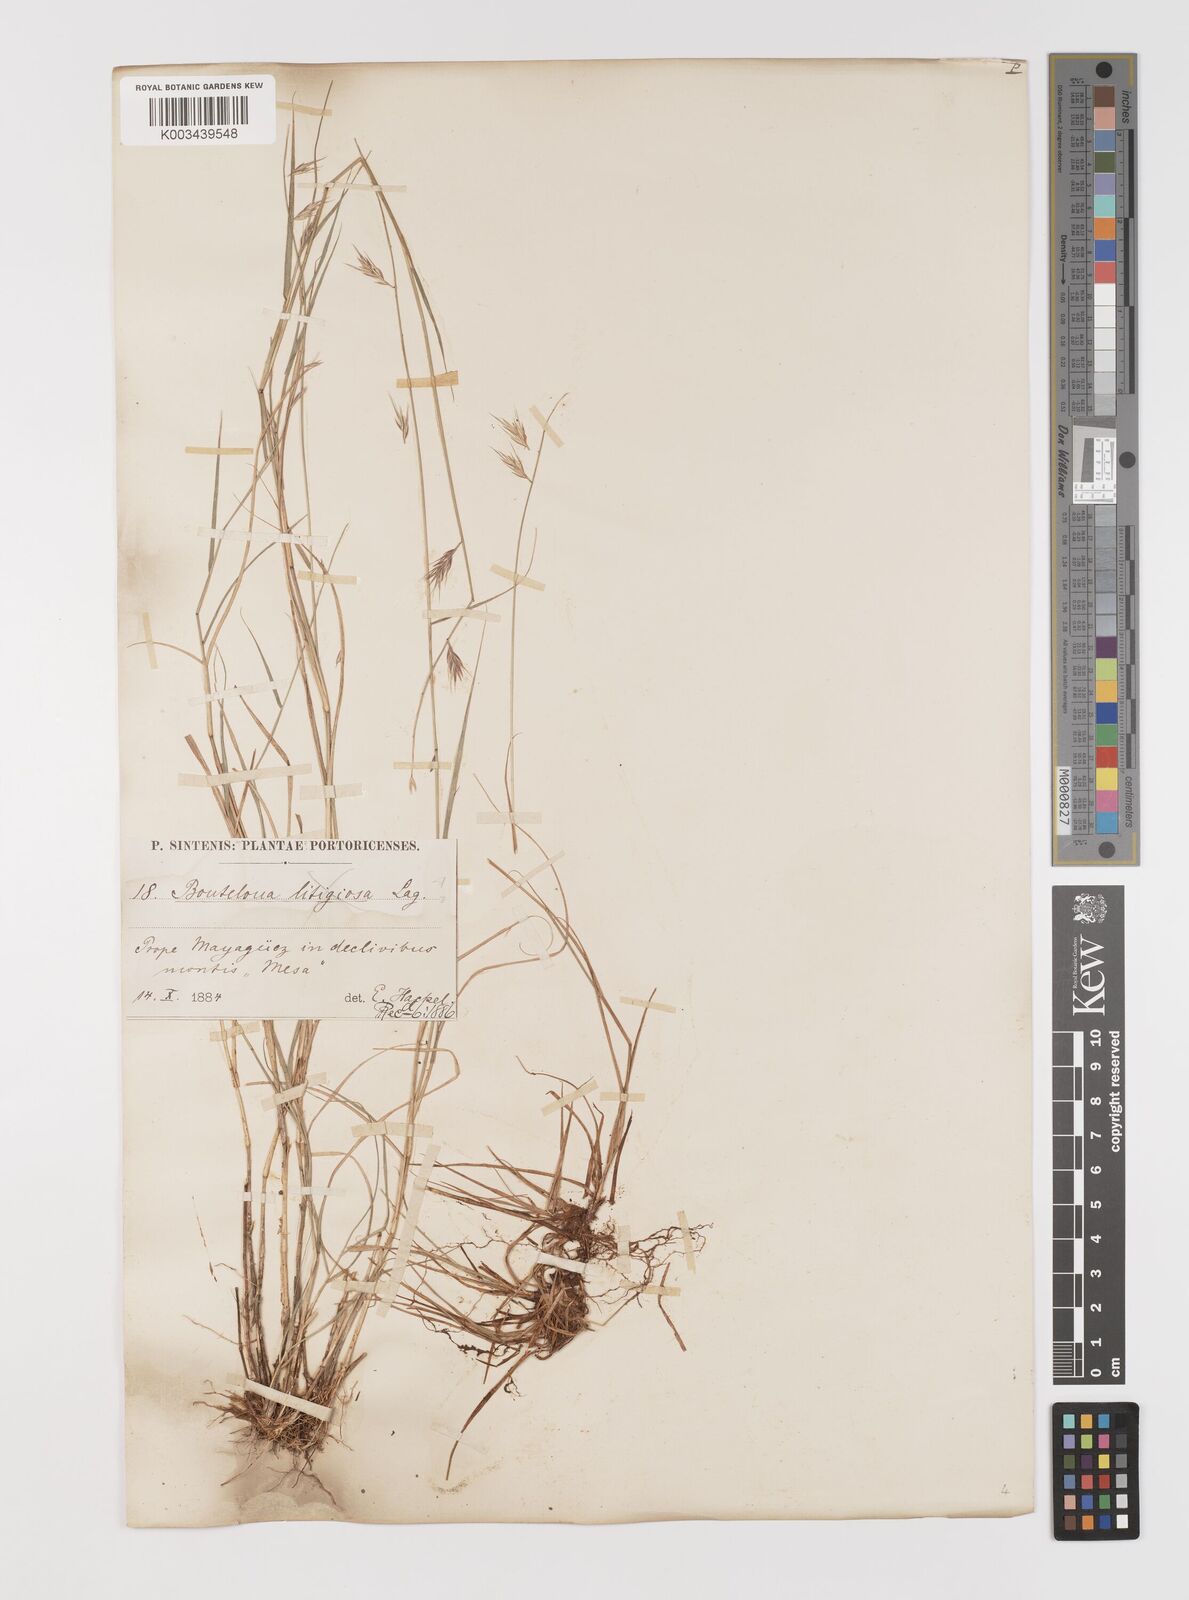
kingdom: Plantae
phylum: Tracheophyta
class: Liliopsida
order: Poales
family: Poaceae
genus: Bouteloua
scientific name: Bouteloua repens
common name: Slender grama
